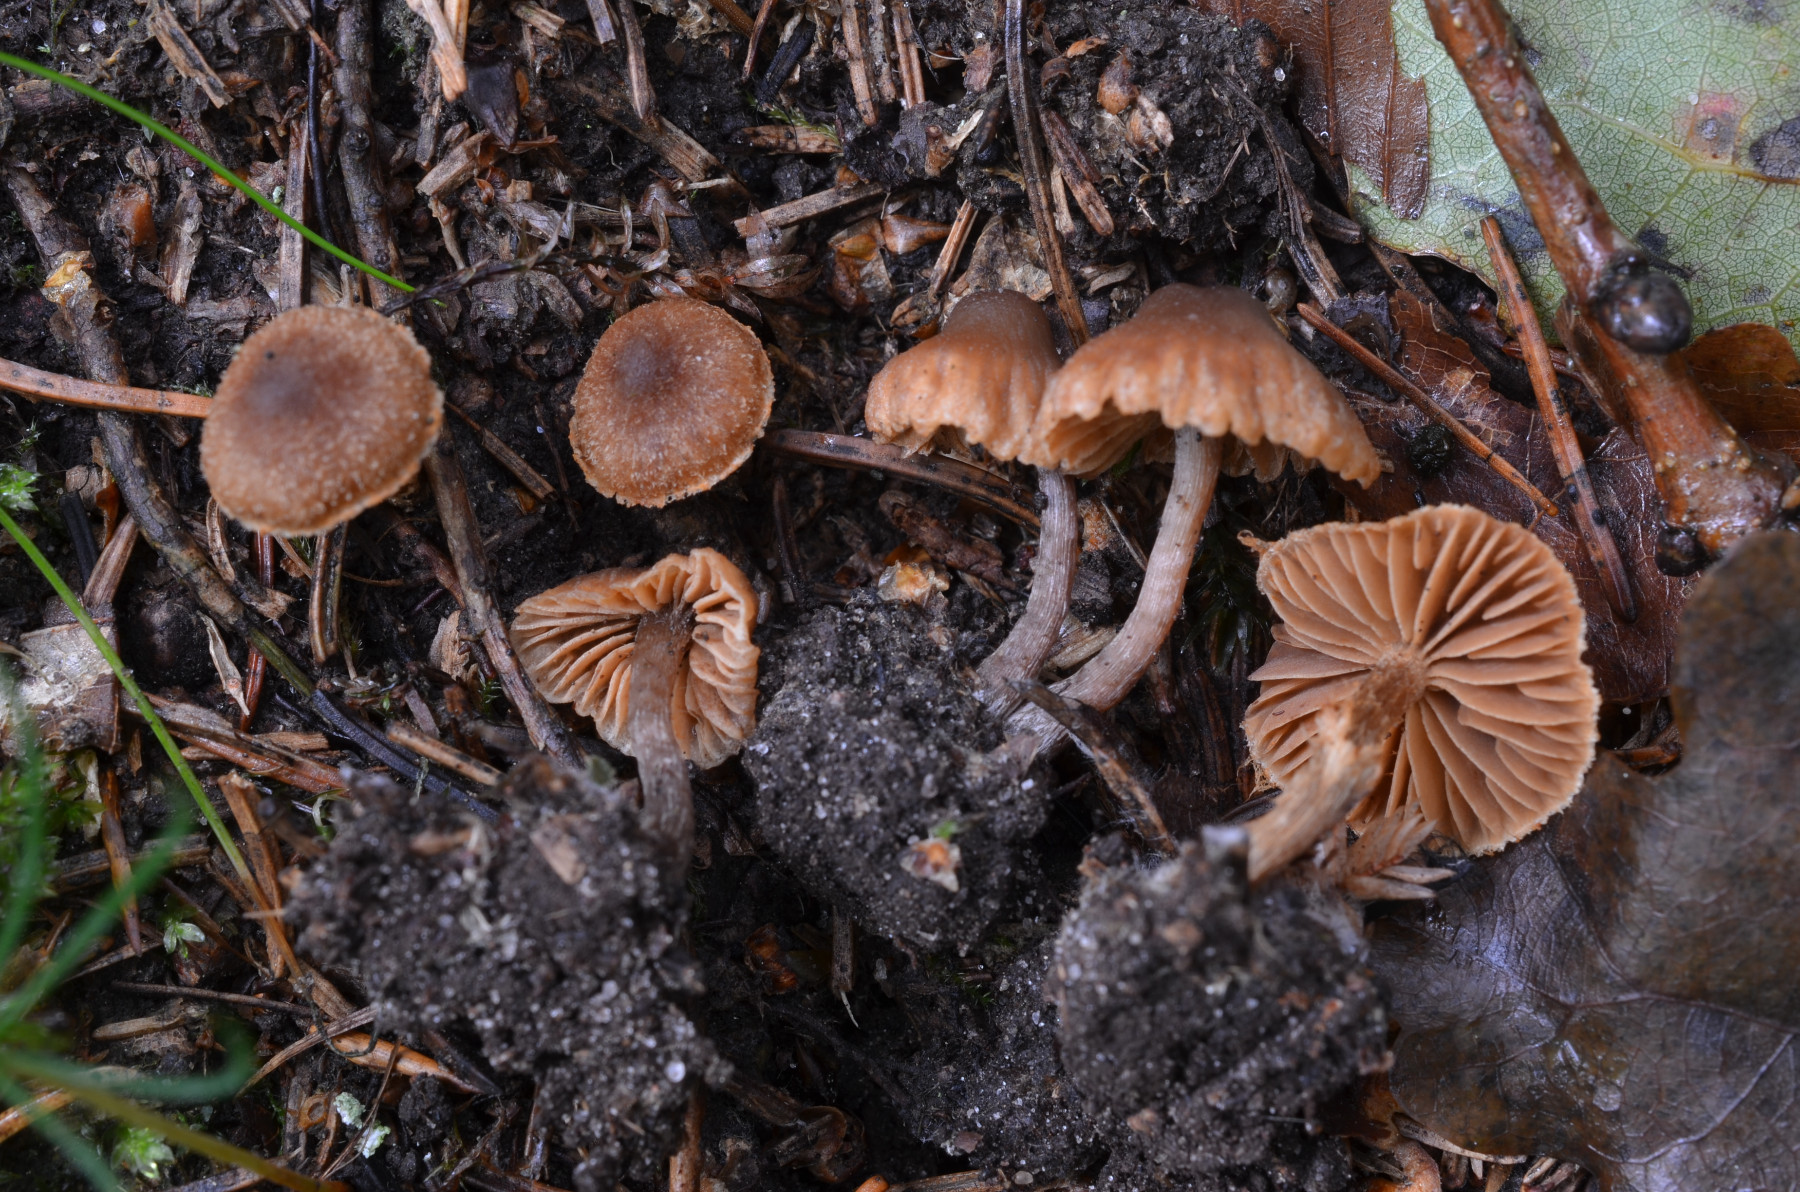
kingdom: Fungi
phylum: Basidiomycota
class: Agaricomycetes
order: Agaricales
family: Cortinariaceae
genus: Cortinarius
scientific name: Cortinarius castaneopallidus
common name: bronzetrævlet slørhat
